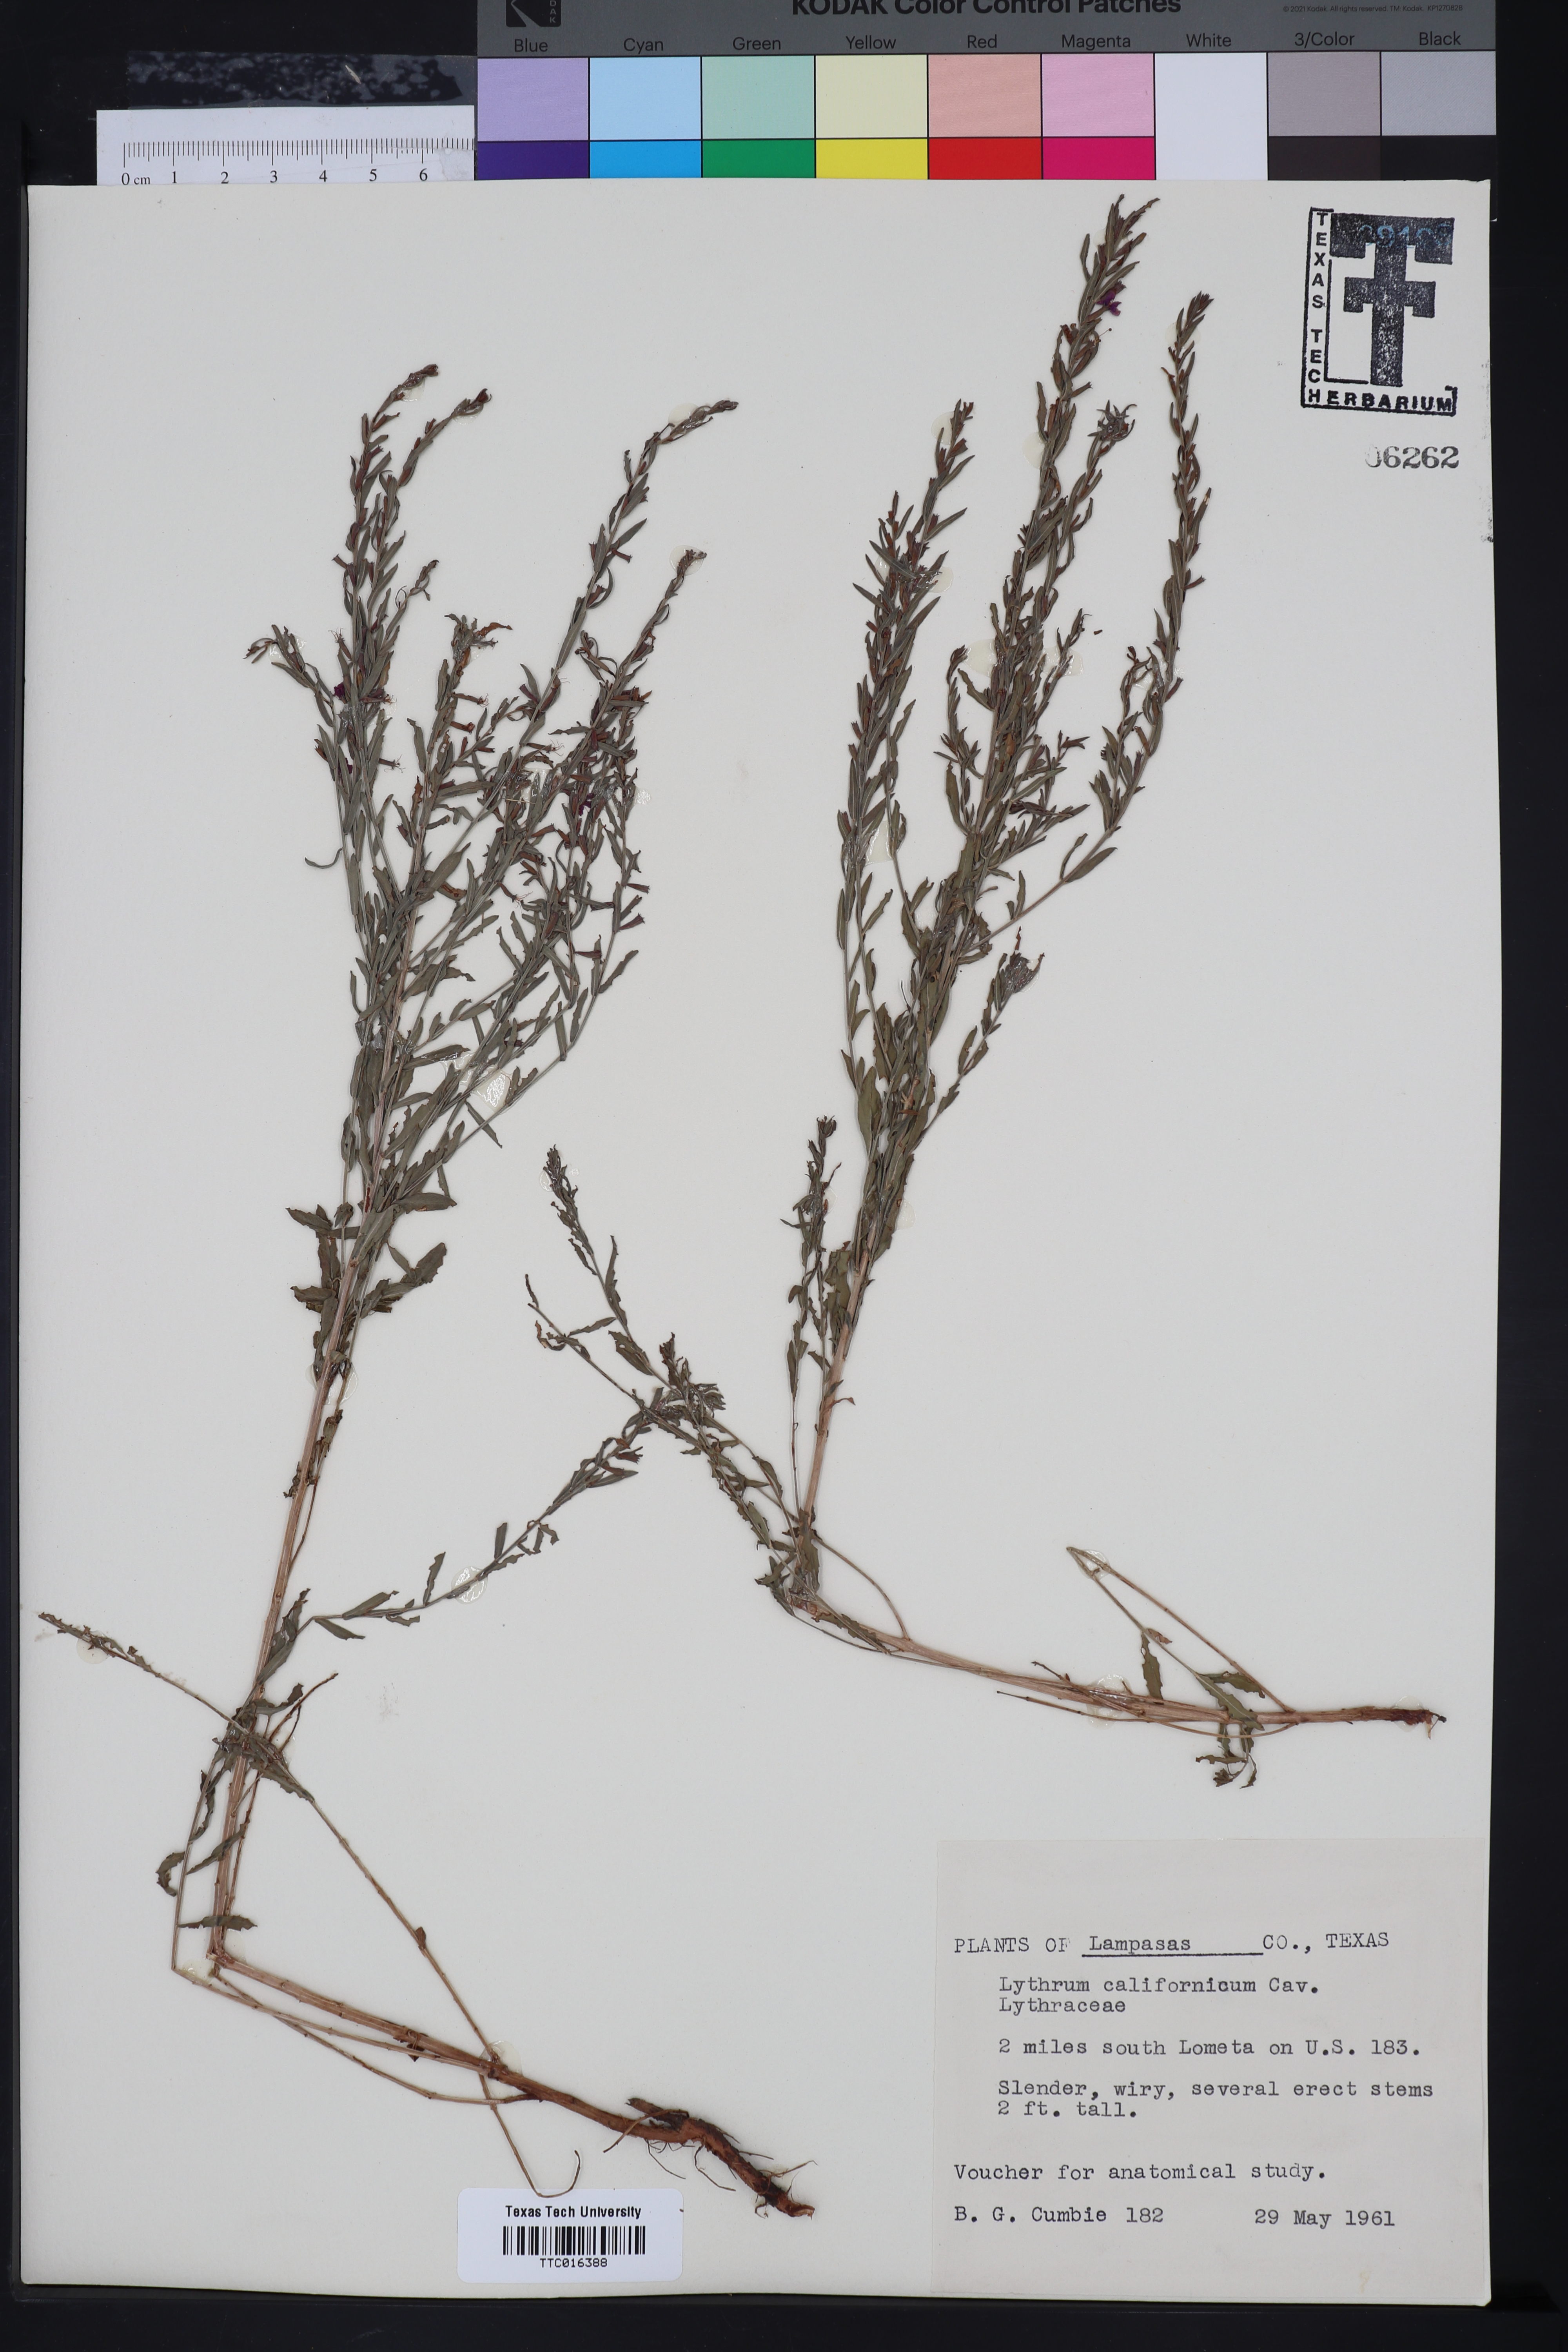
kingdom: Plantae
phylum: Tracheophyta
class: Magnoliopsida
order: Myrtales
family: Lythraceae
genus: Lythrum
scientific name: Lythrum californicum
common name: California loosestrife
